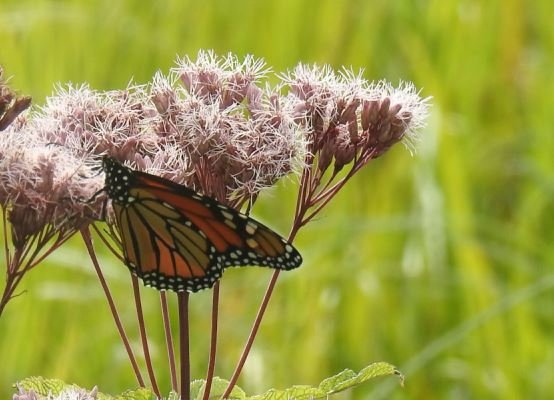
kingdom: Animalia
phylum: Arthropoda
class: Insecta
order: Lepidoptera
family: Nymphalidae
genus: Danaus
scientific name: Danaus plexippus
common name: Monarch
